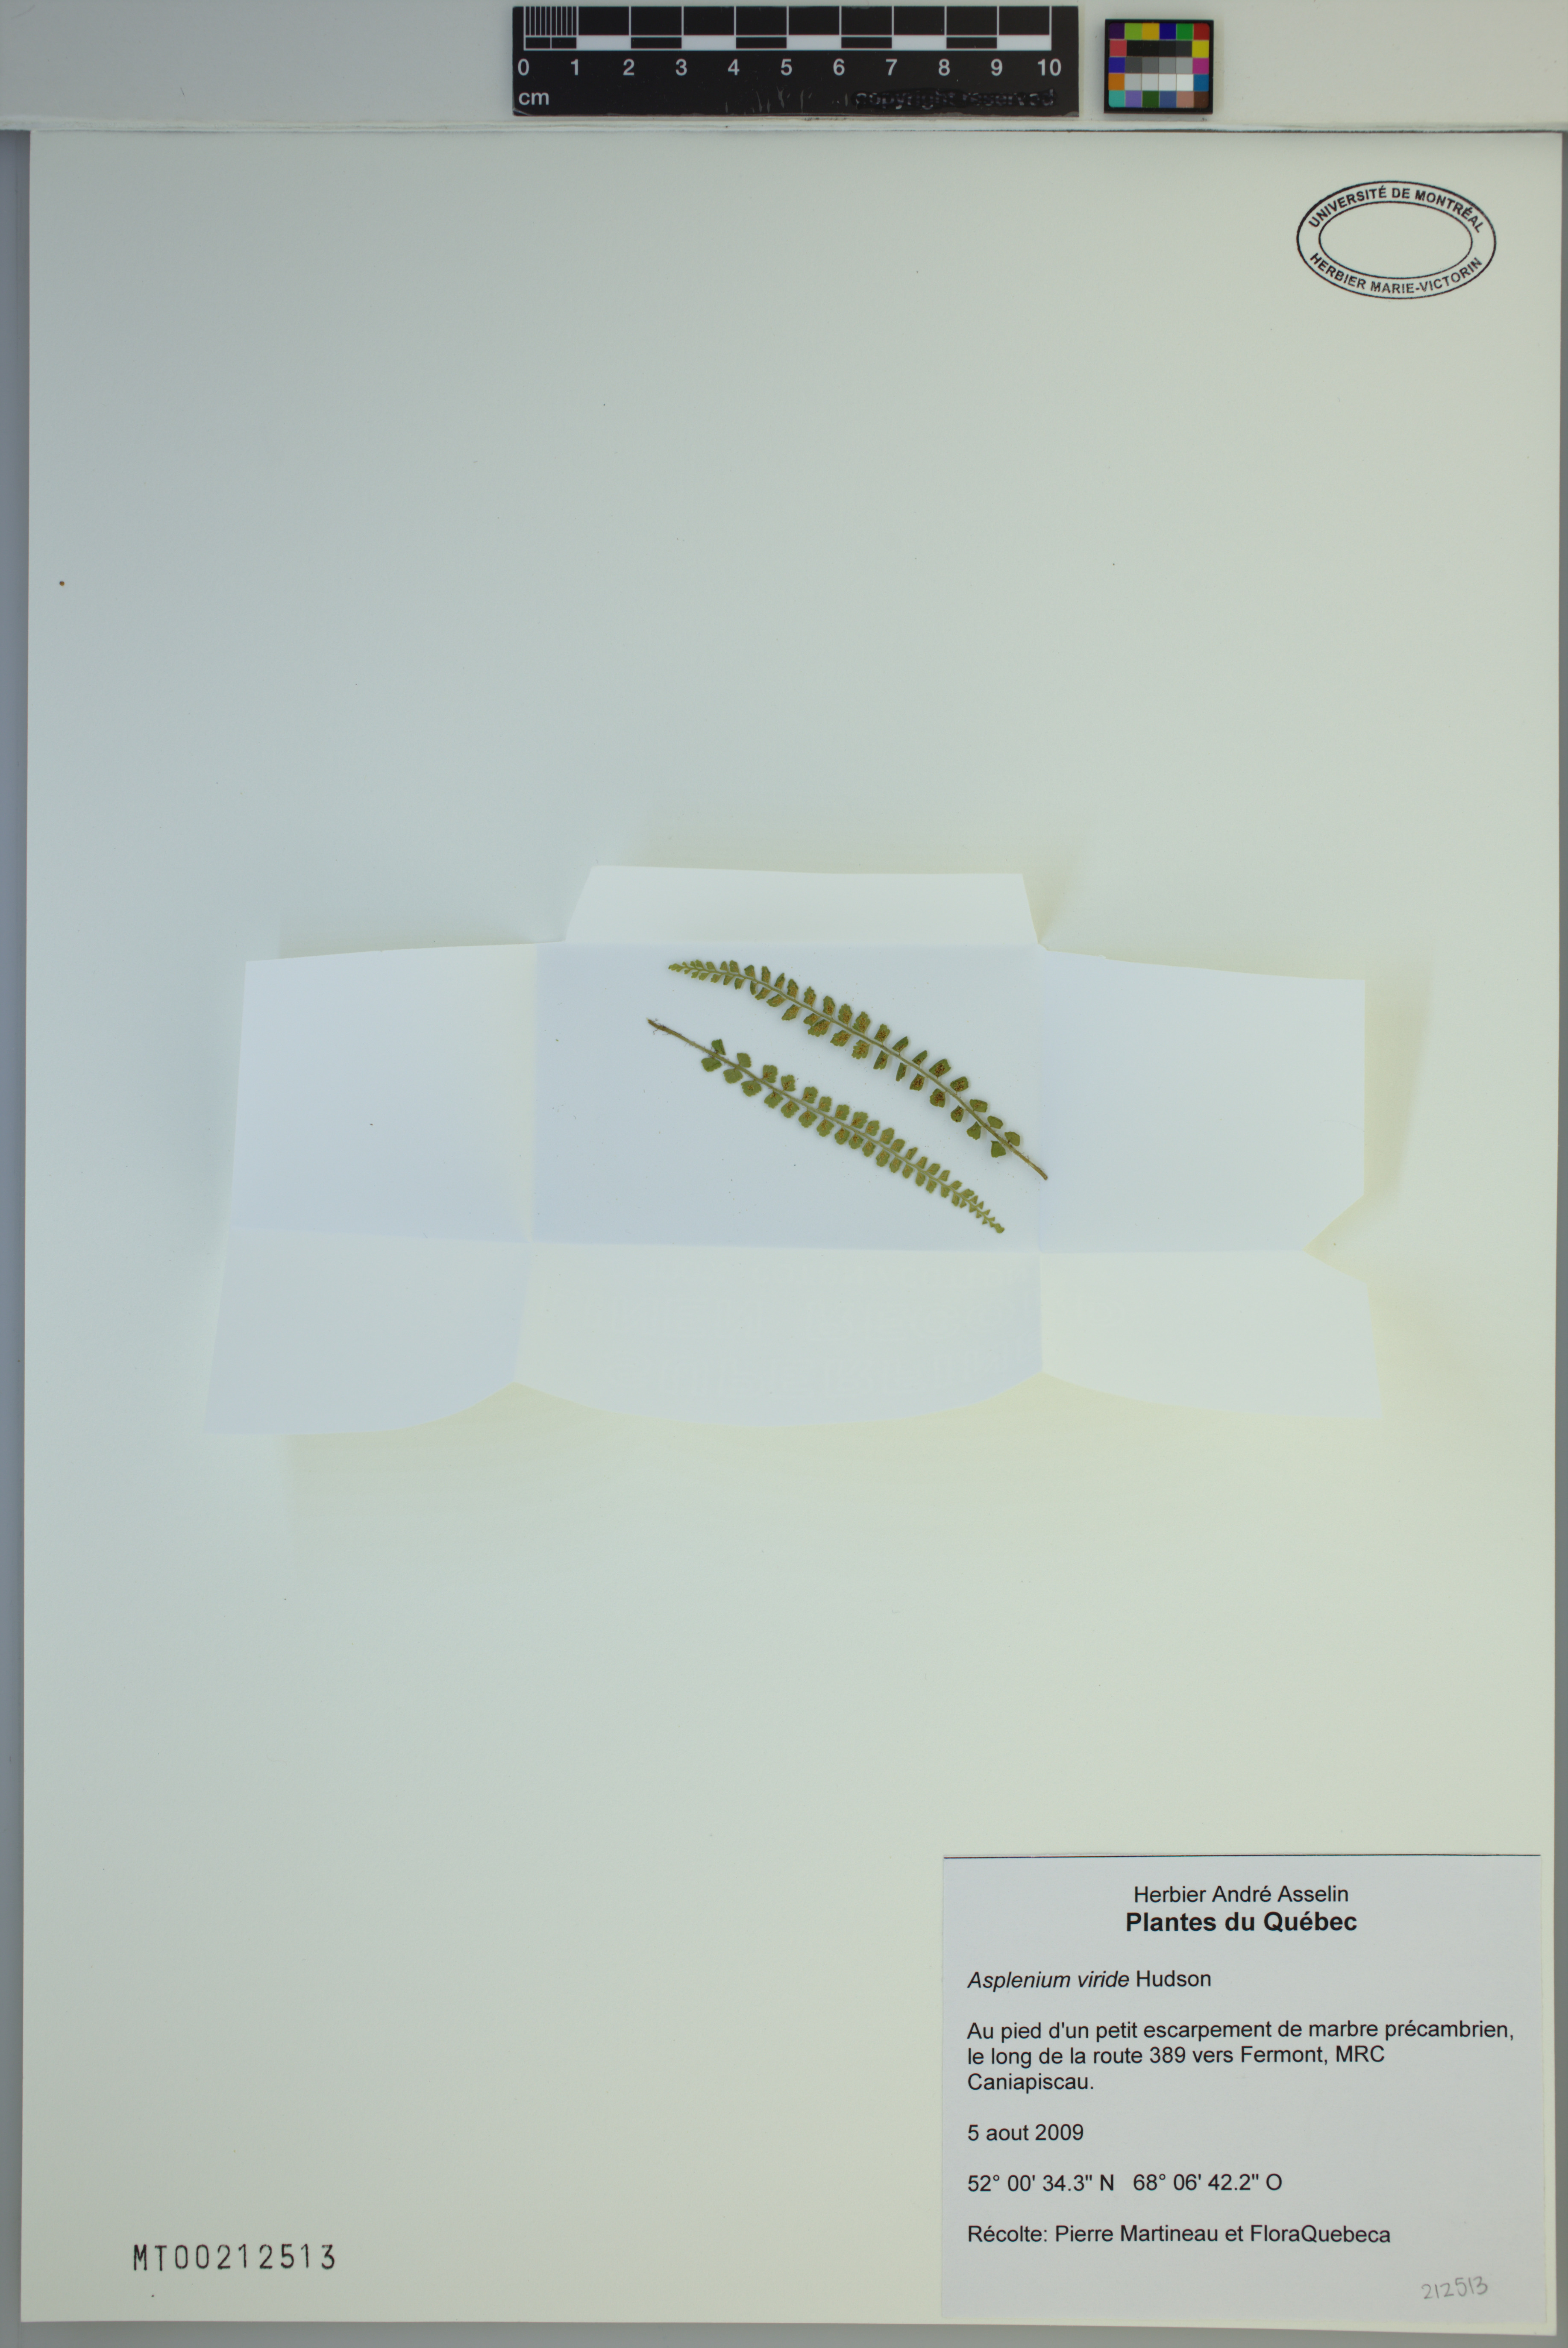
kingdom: Plantae
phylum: Tracheophyta
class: Polypodiopsida
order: Polypodiales
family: Aspleniaceae
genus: Asplenium
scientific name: Asplenium viride
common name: Green spleenwort
